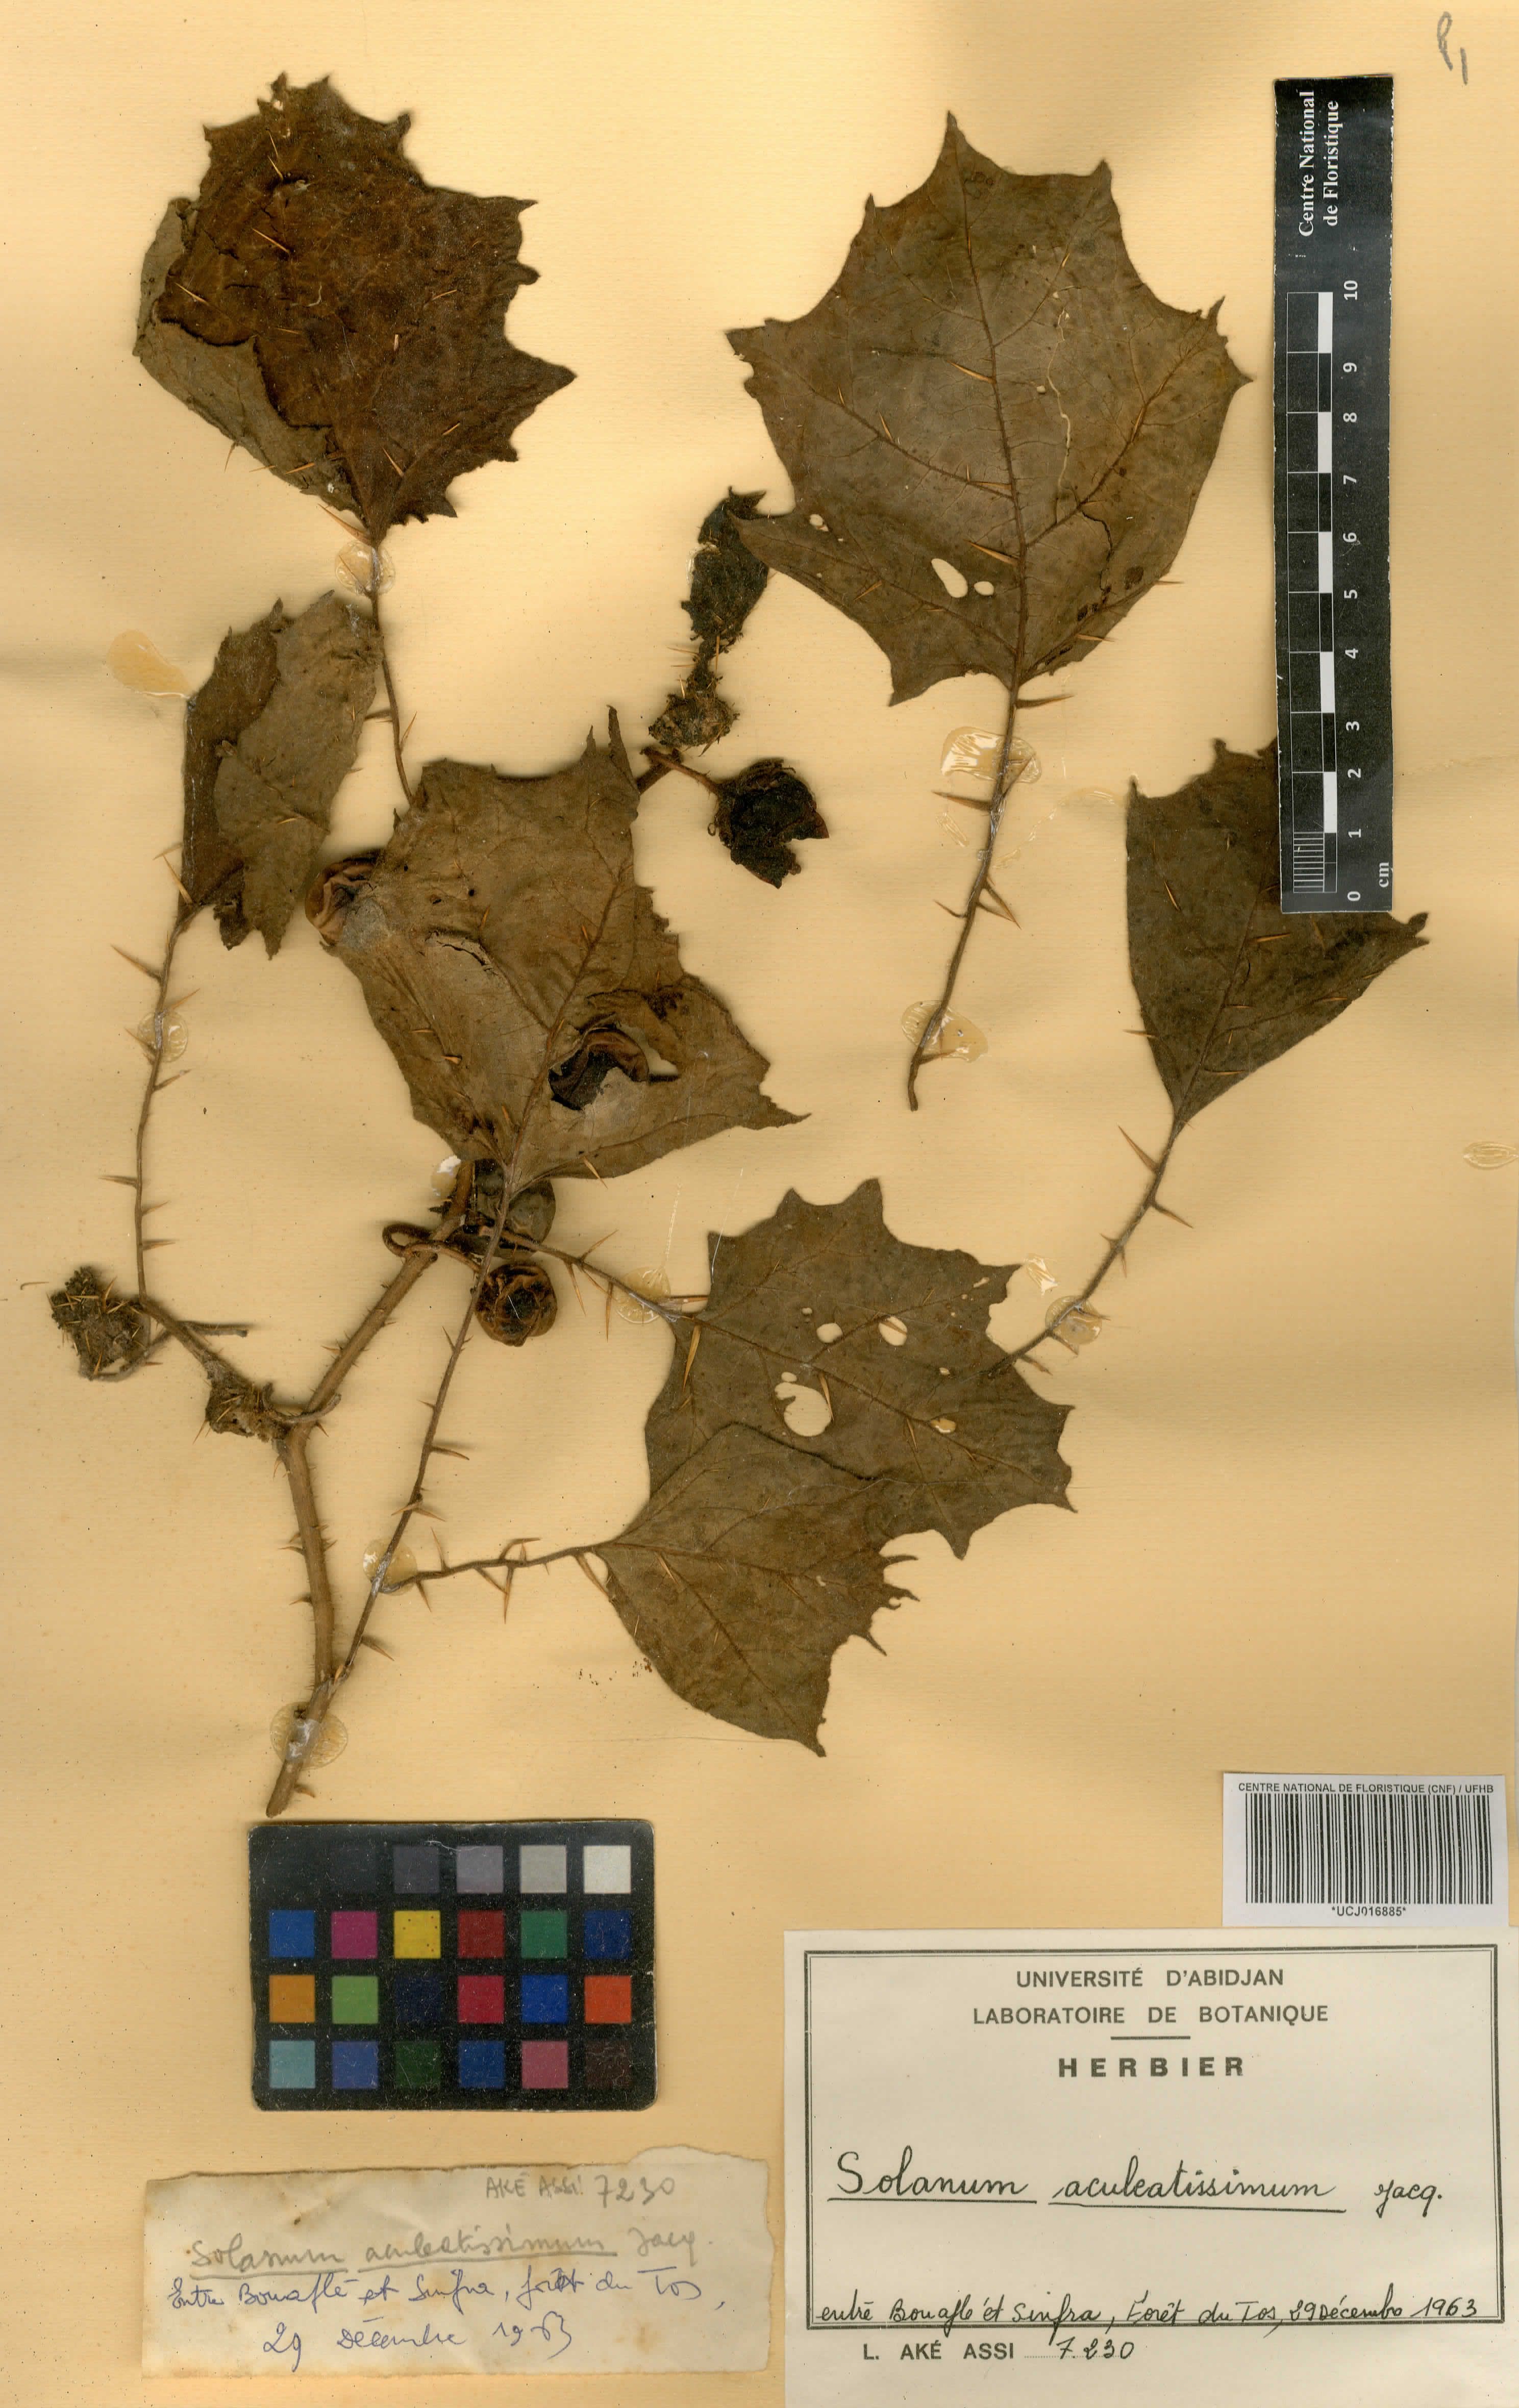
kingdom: Plantae
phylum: Tracheophyta
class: Magnoliopsida
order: Solanales
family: Solanaceae
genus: Solanum
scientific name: Solanum anomalum
